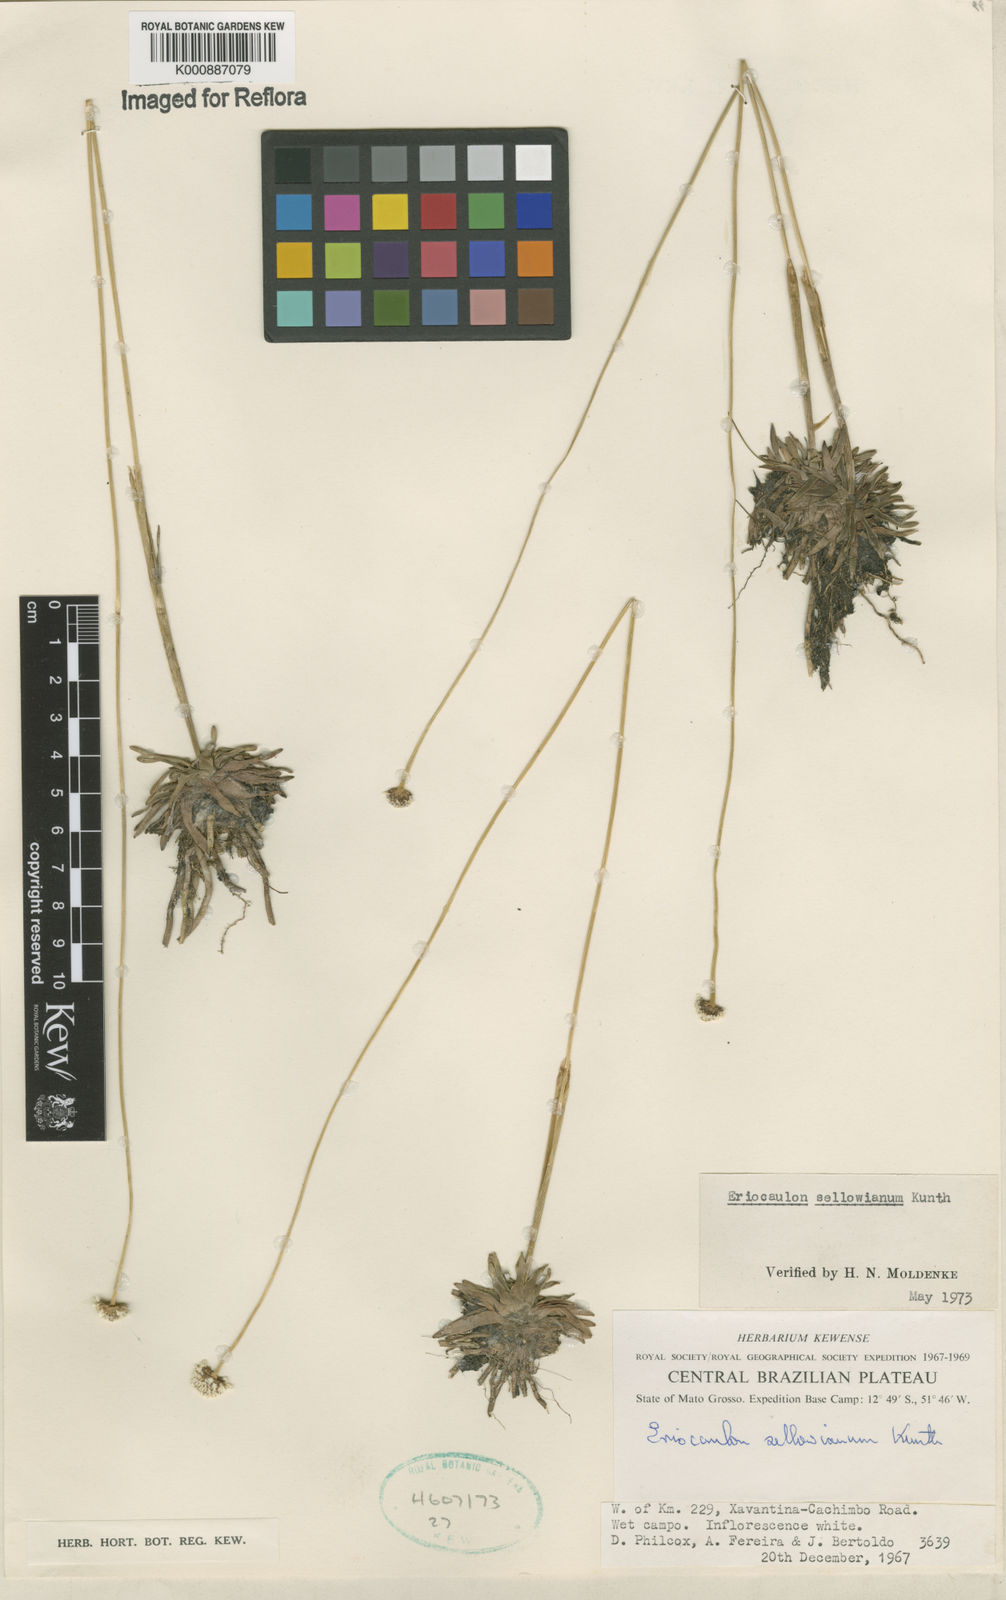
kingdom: Plantae
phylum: Tracheophyta
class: Liliopsida
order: Poales
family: Eriocaulaceae
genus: Eriocaulon
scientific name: Eriocaulon sellowianum
